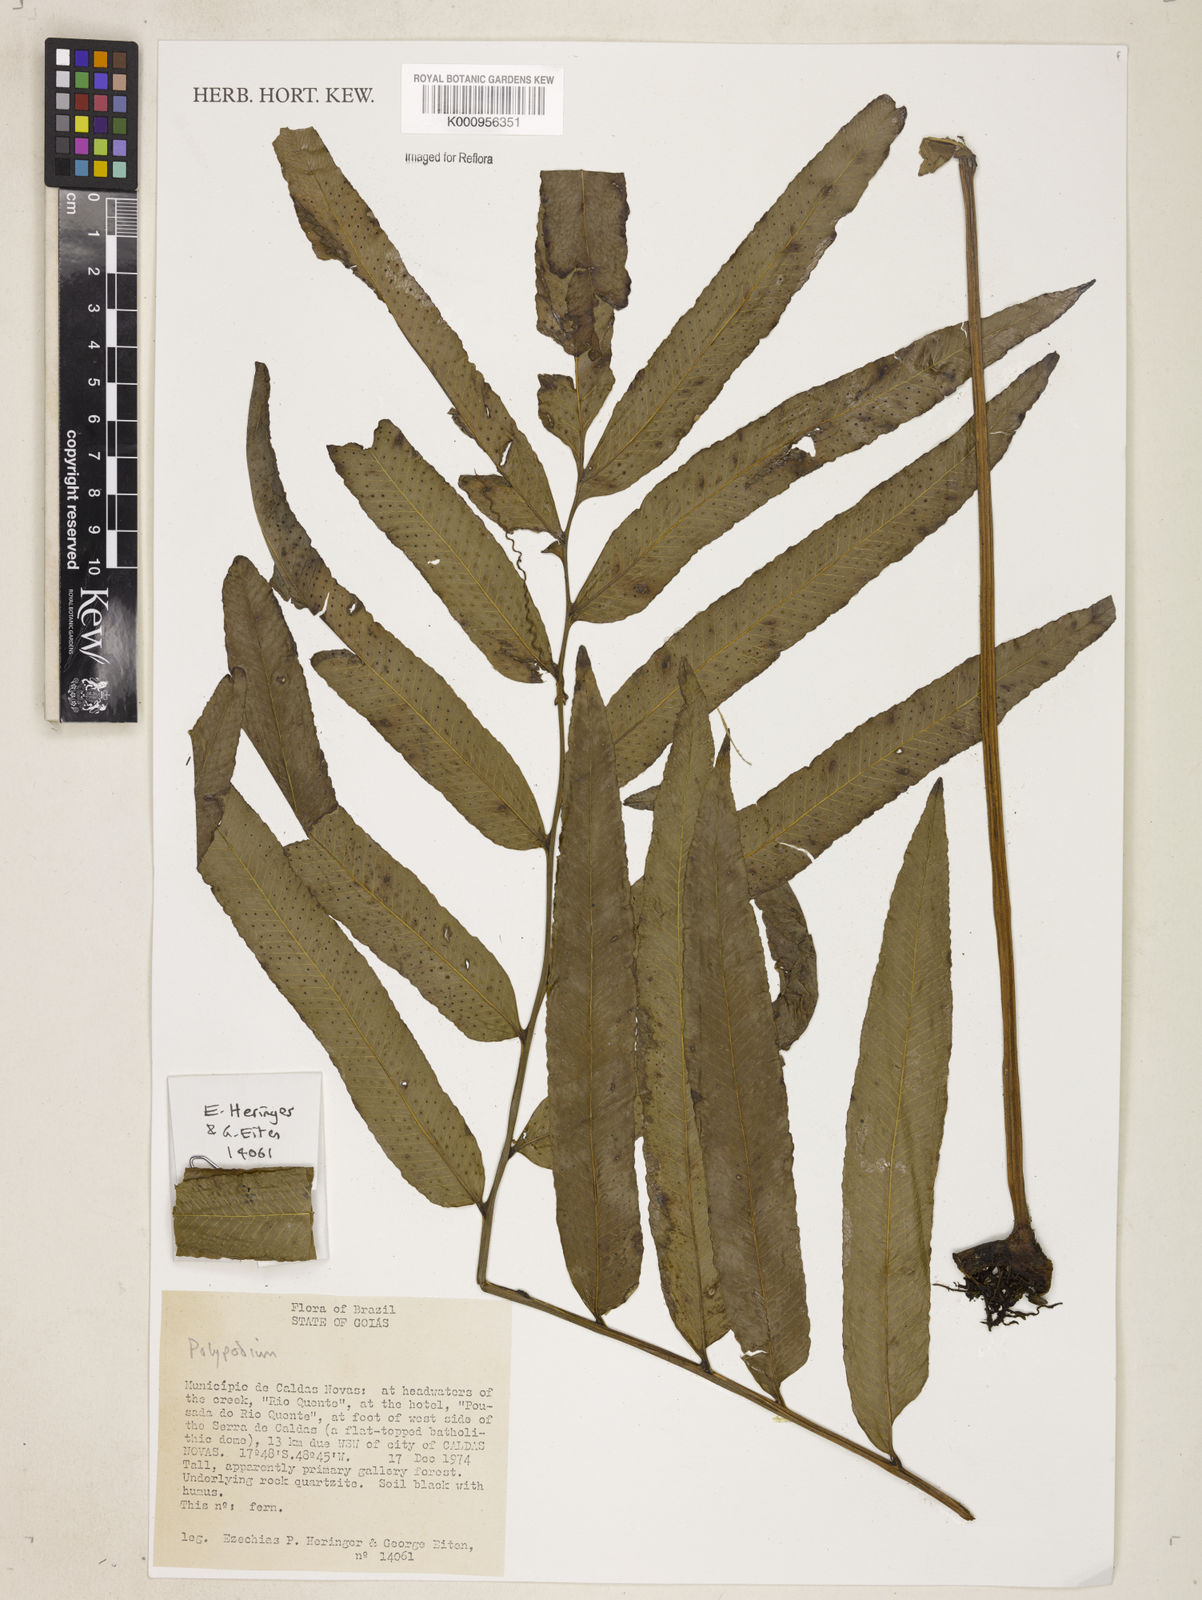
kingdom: Plantae
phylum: Tracheophyta
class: Polypodiopsida
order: Polypodiales
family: Polypodiaceae
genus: Serpocaulon
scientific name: Serpocaulon triseriale
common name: Angle-vein fern
